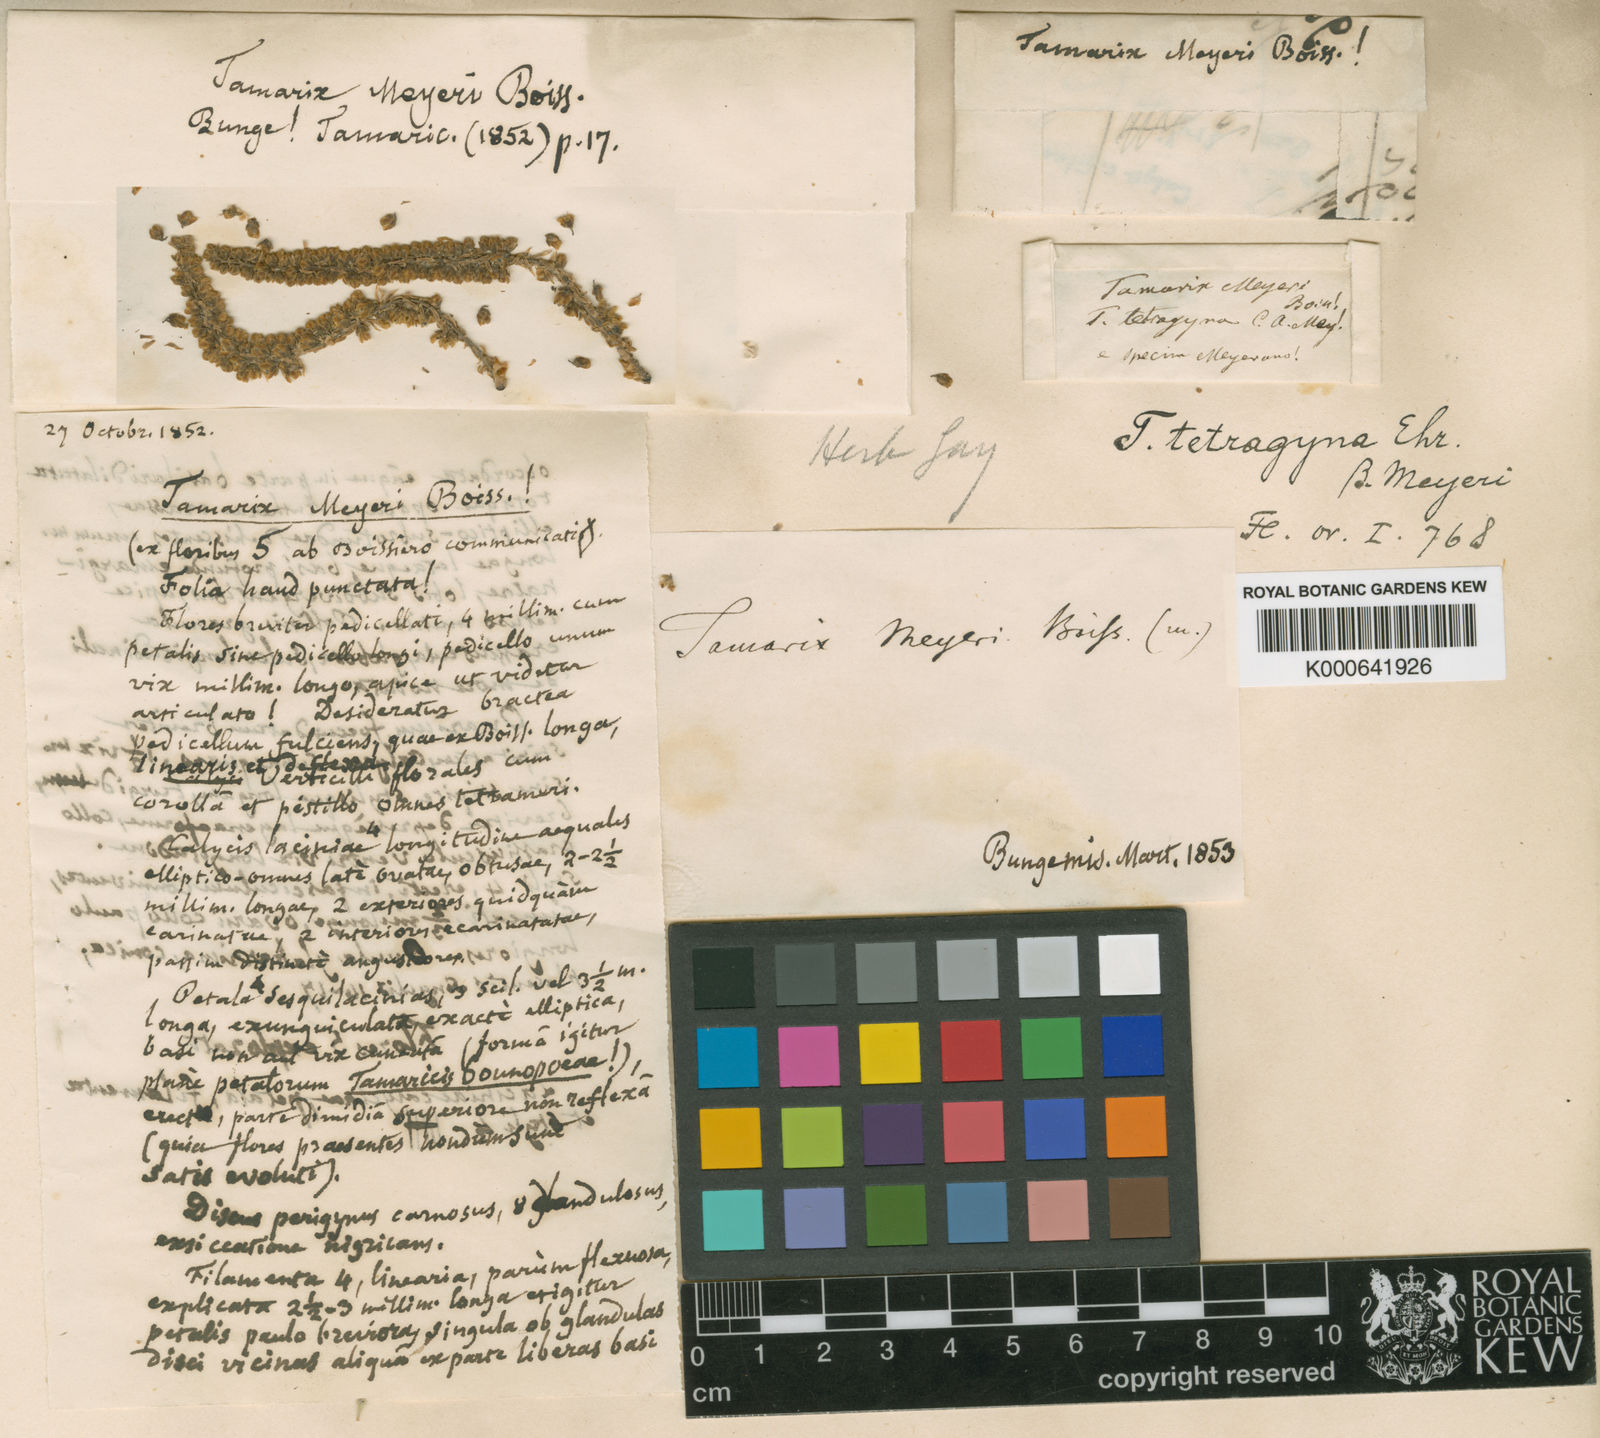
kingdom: Plantae
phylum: Tracheophyta
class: Magnoliopsida
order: Caryophyllales
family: Tamaricaceae
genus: Tamarix
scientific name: Tamarix meyeri
